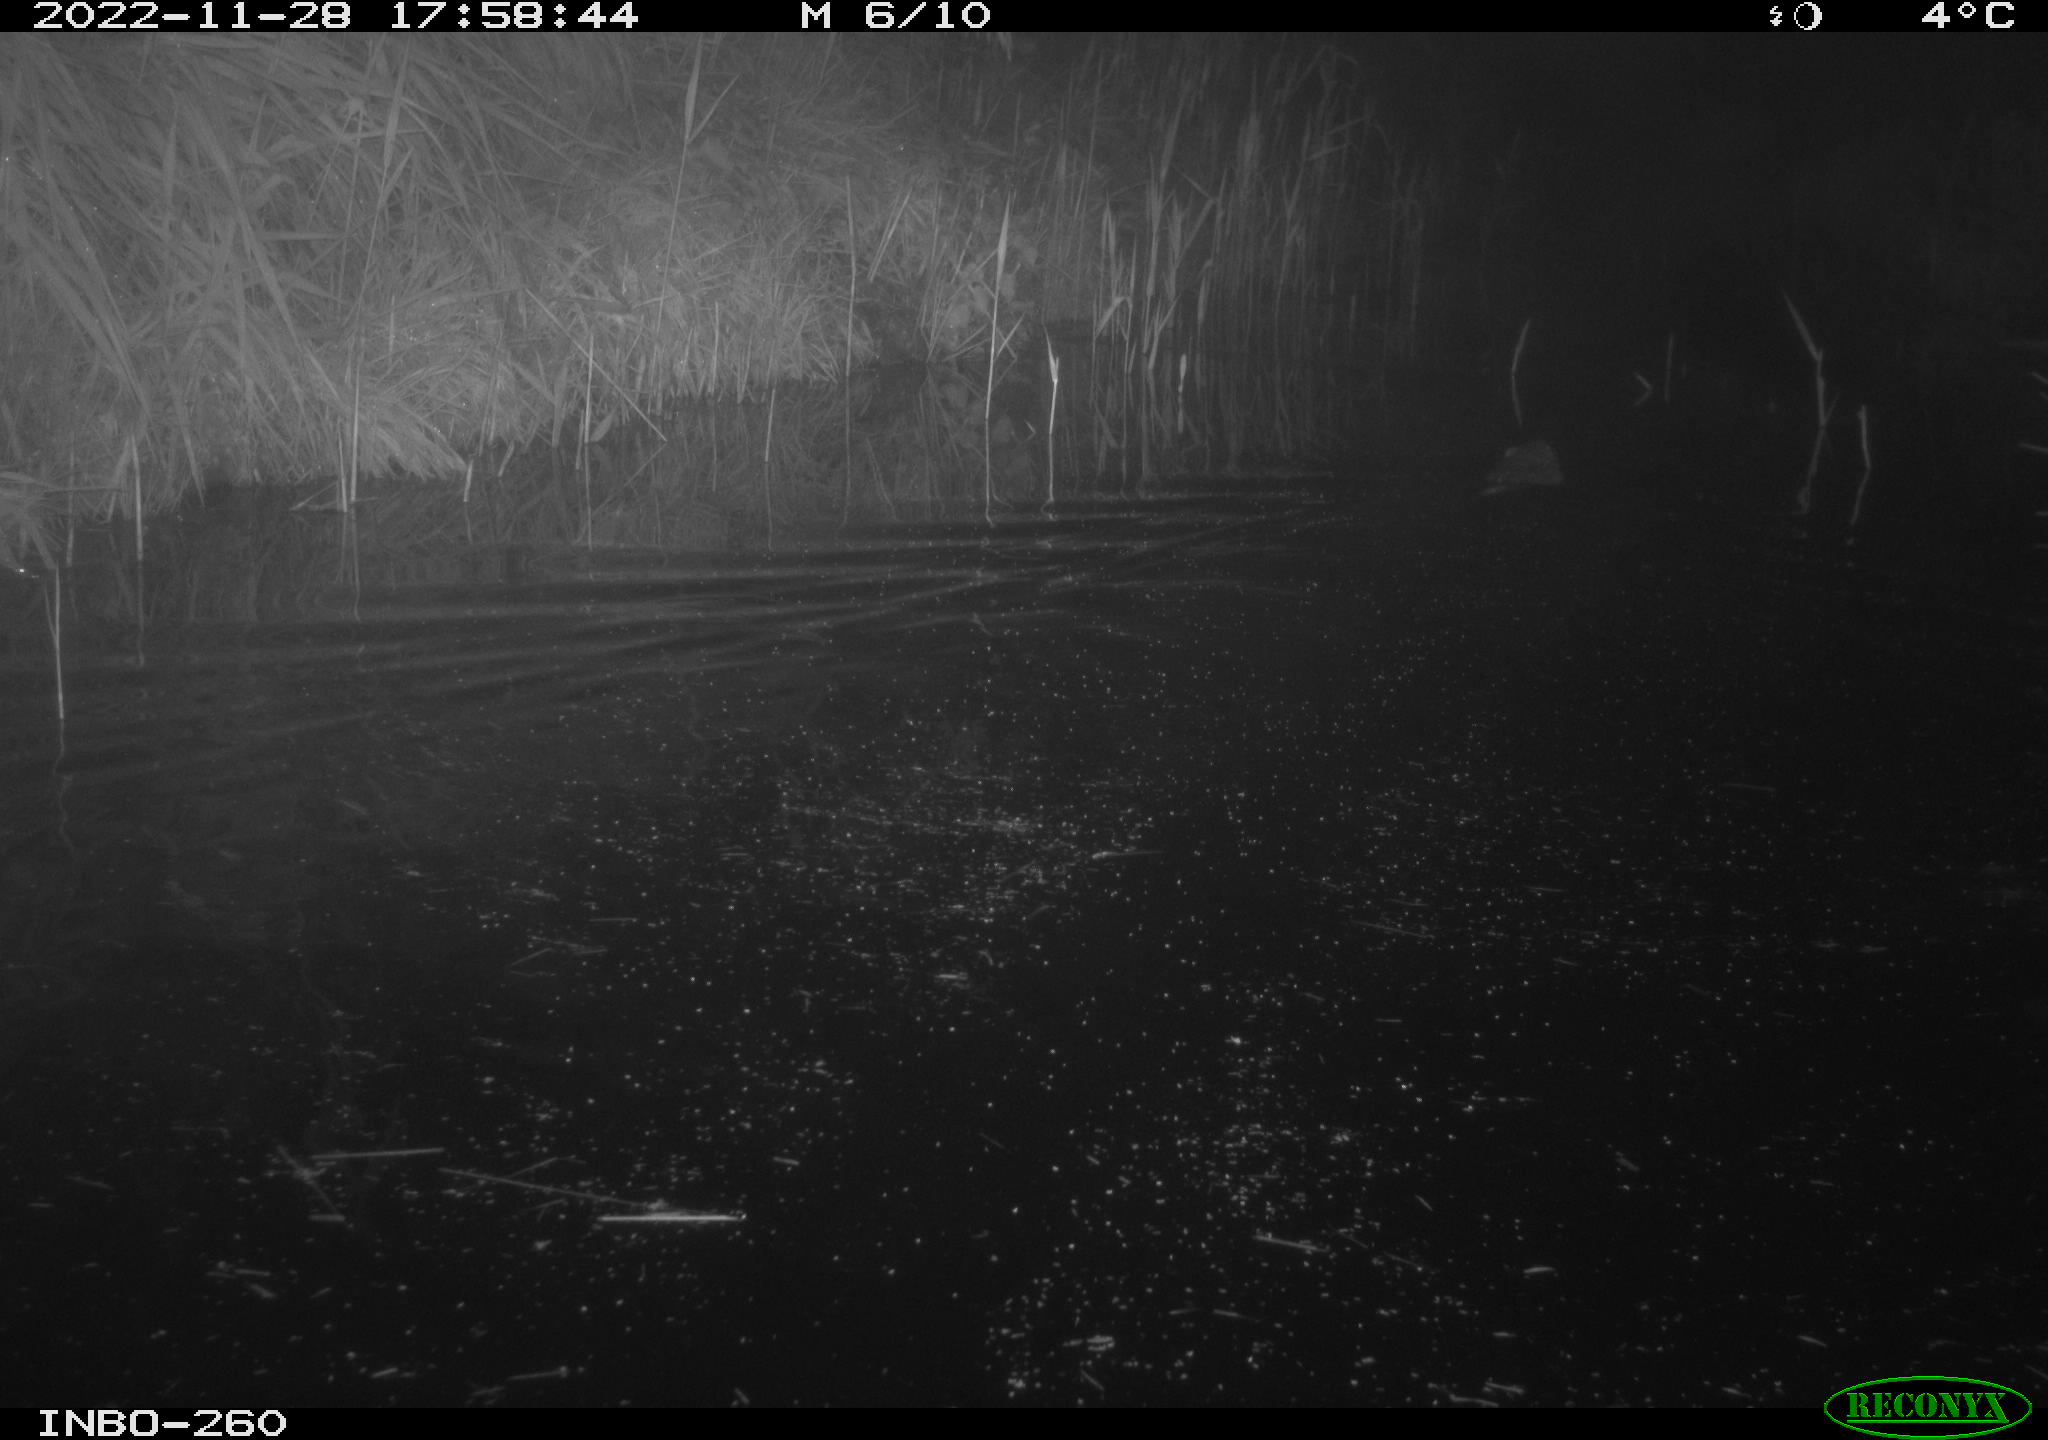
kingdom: Animalia
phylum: Chordata
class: Mammalia
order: Rodentia
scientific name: Rodentia
